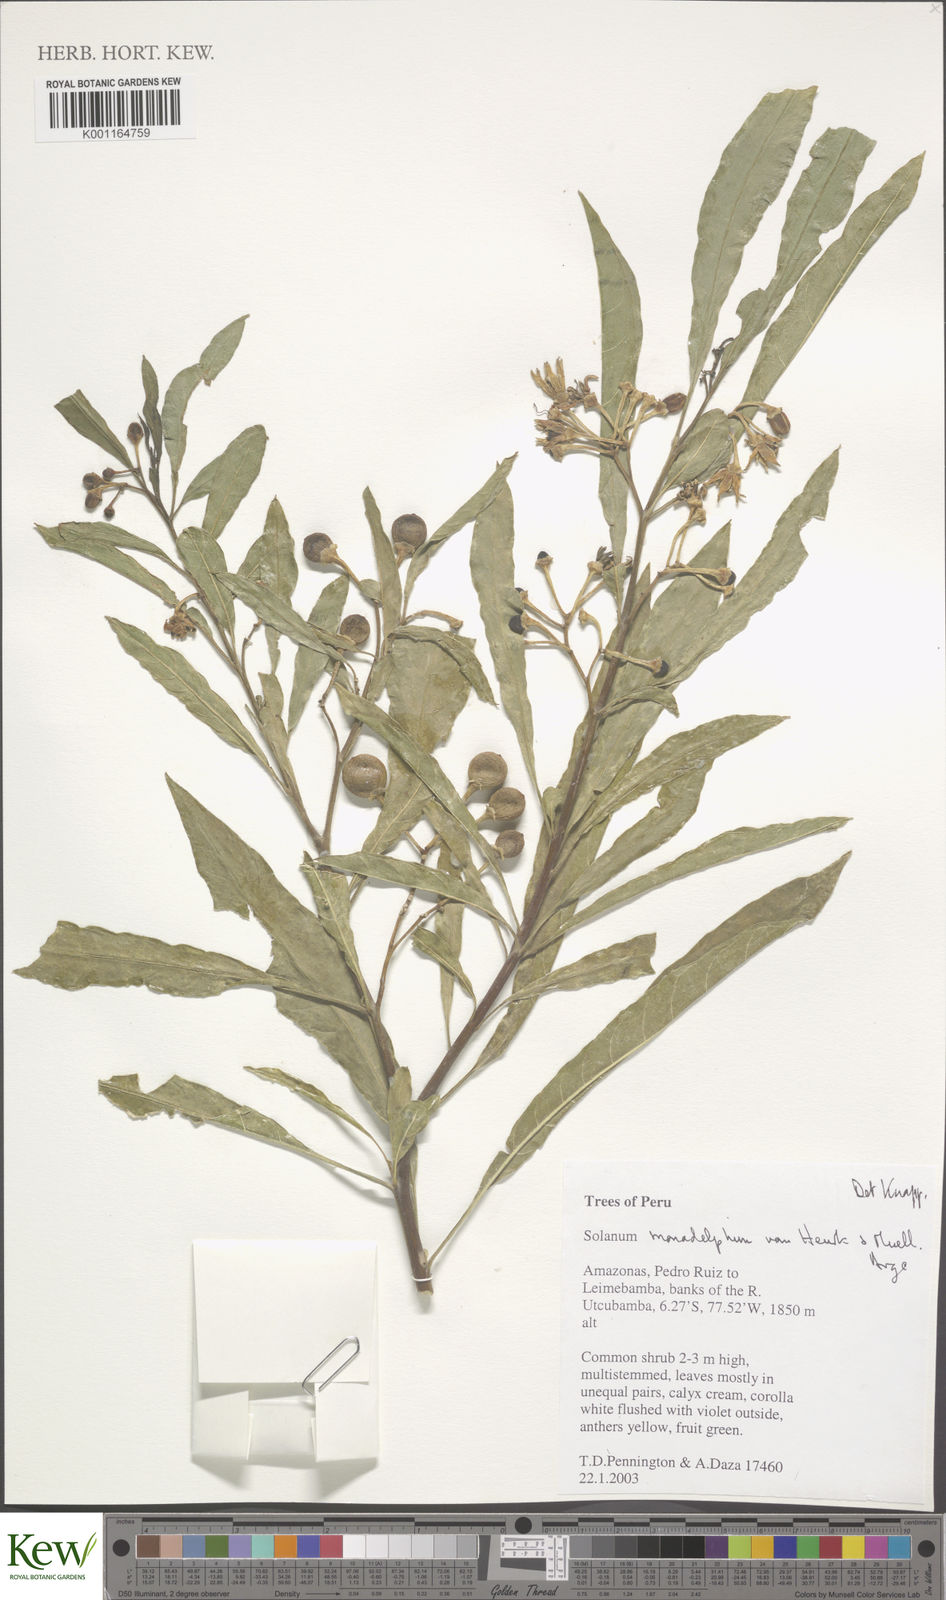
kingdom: Plantae
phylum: Tracheophyta
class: Magnoliopsida
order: Solanales
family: Solanaceae
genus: Solanum
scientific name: Solanum monadelphum
